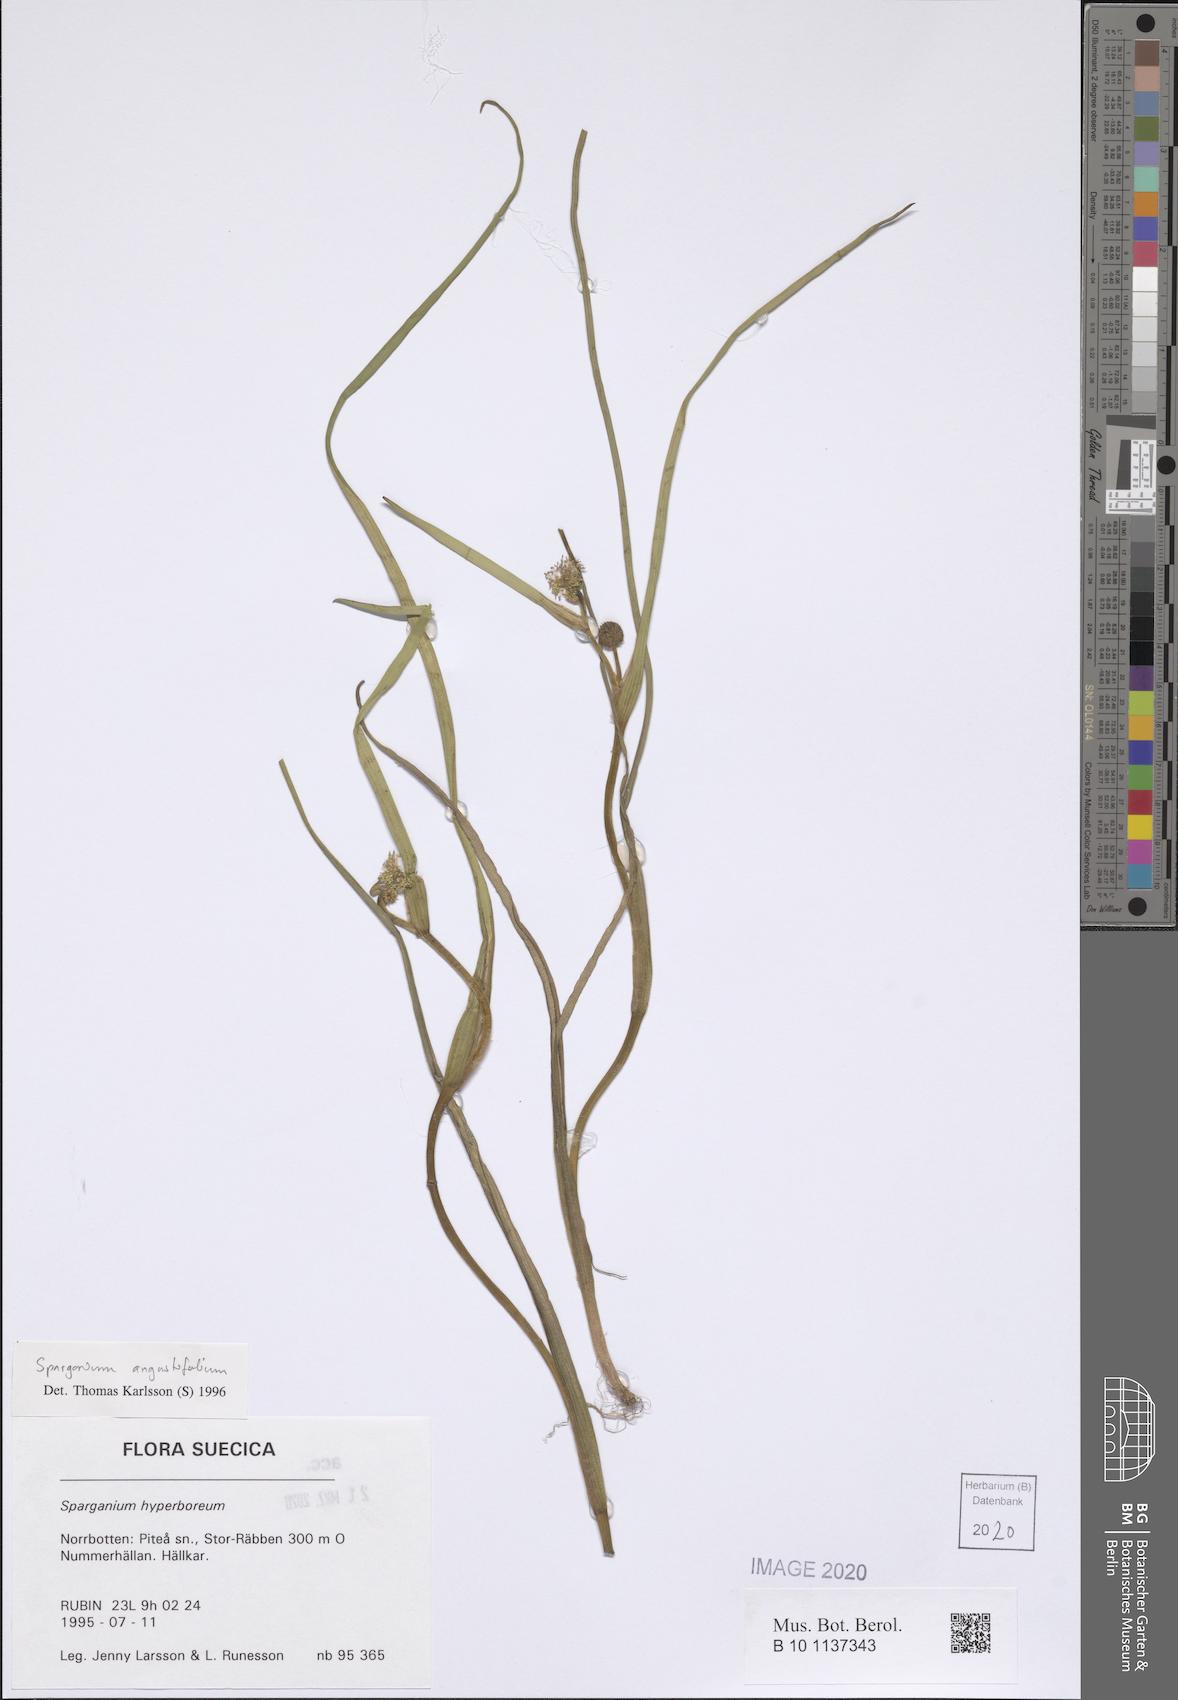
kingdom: Plantae
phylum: Tracheophyta
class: Liliopsida
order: Poales
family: Typhaceae
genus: Sparganium
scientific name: Sparganium angustifolium
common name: Floating bur-reed
